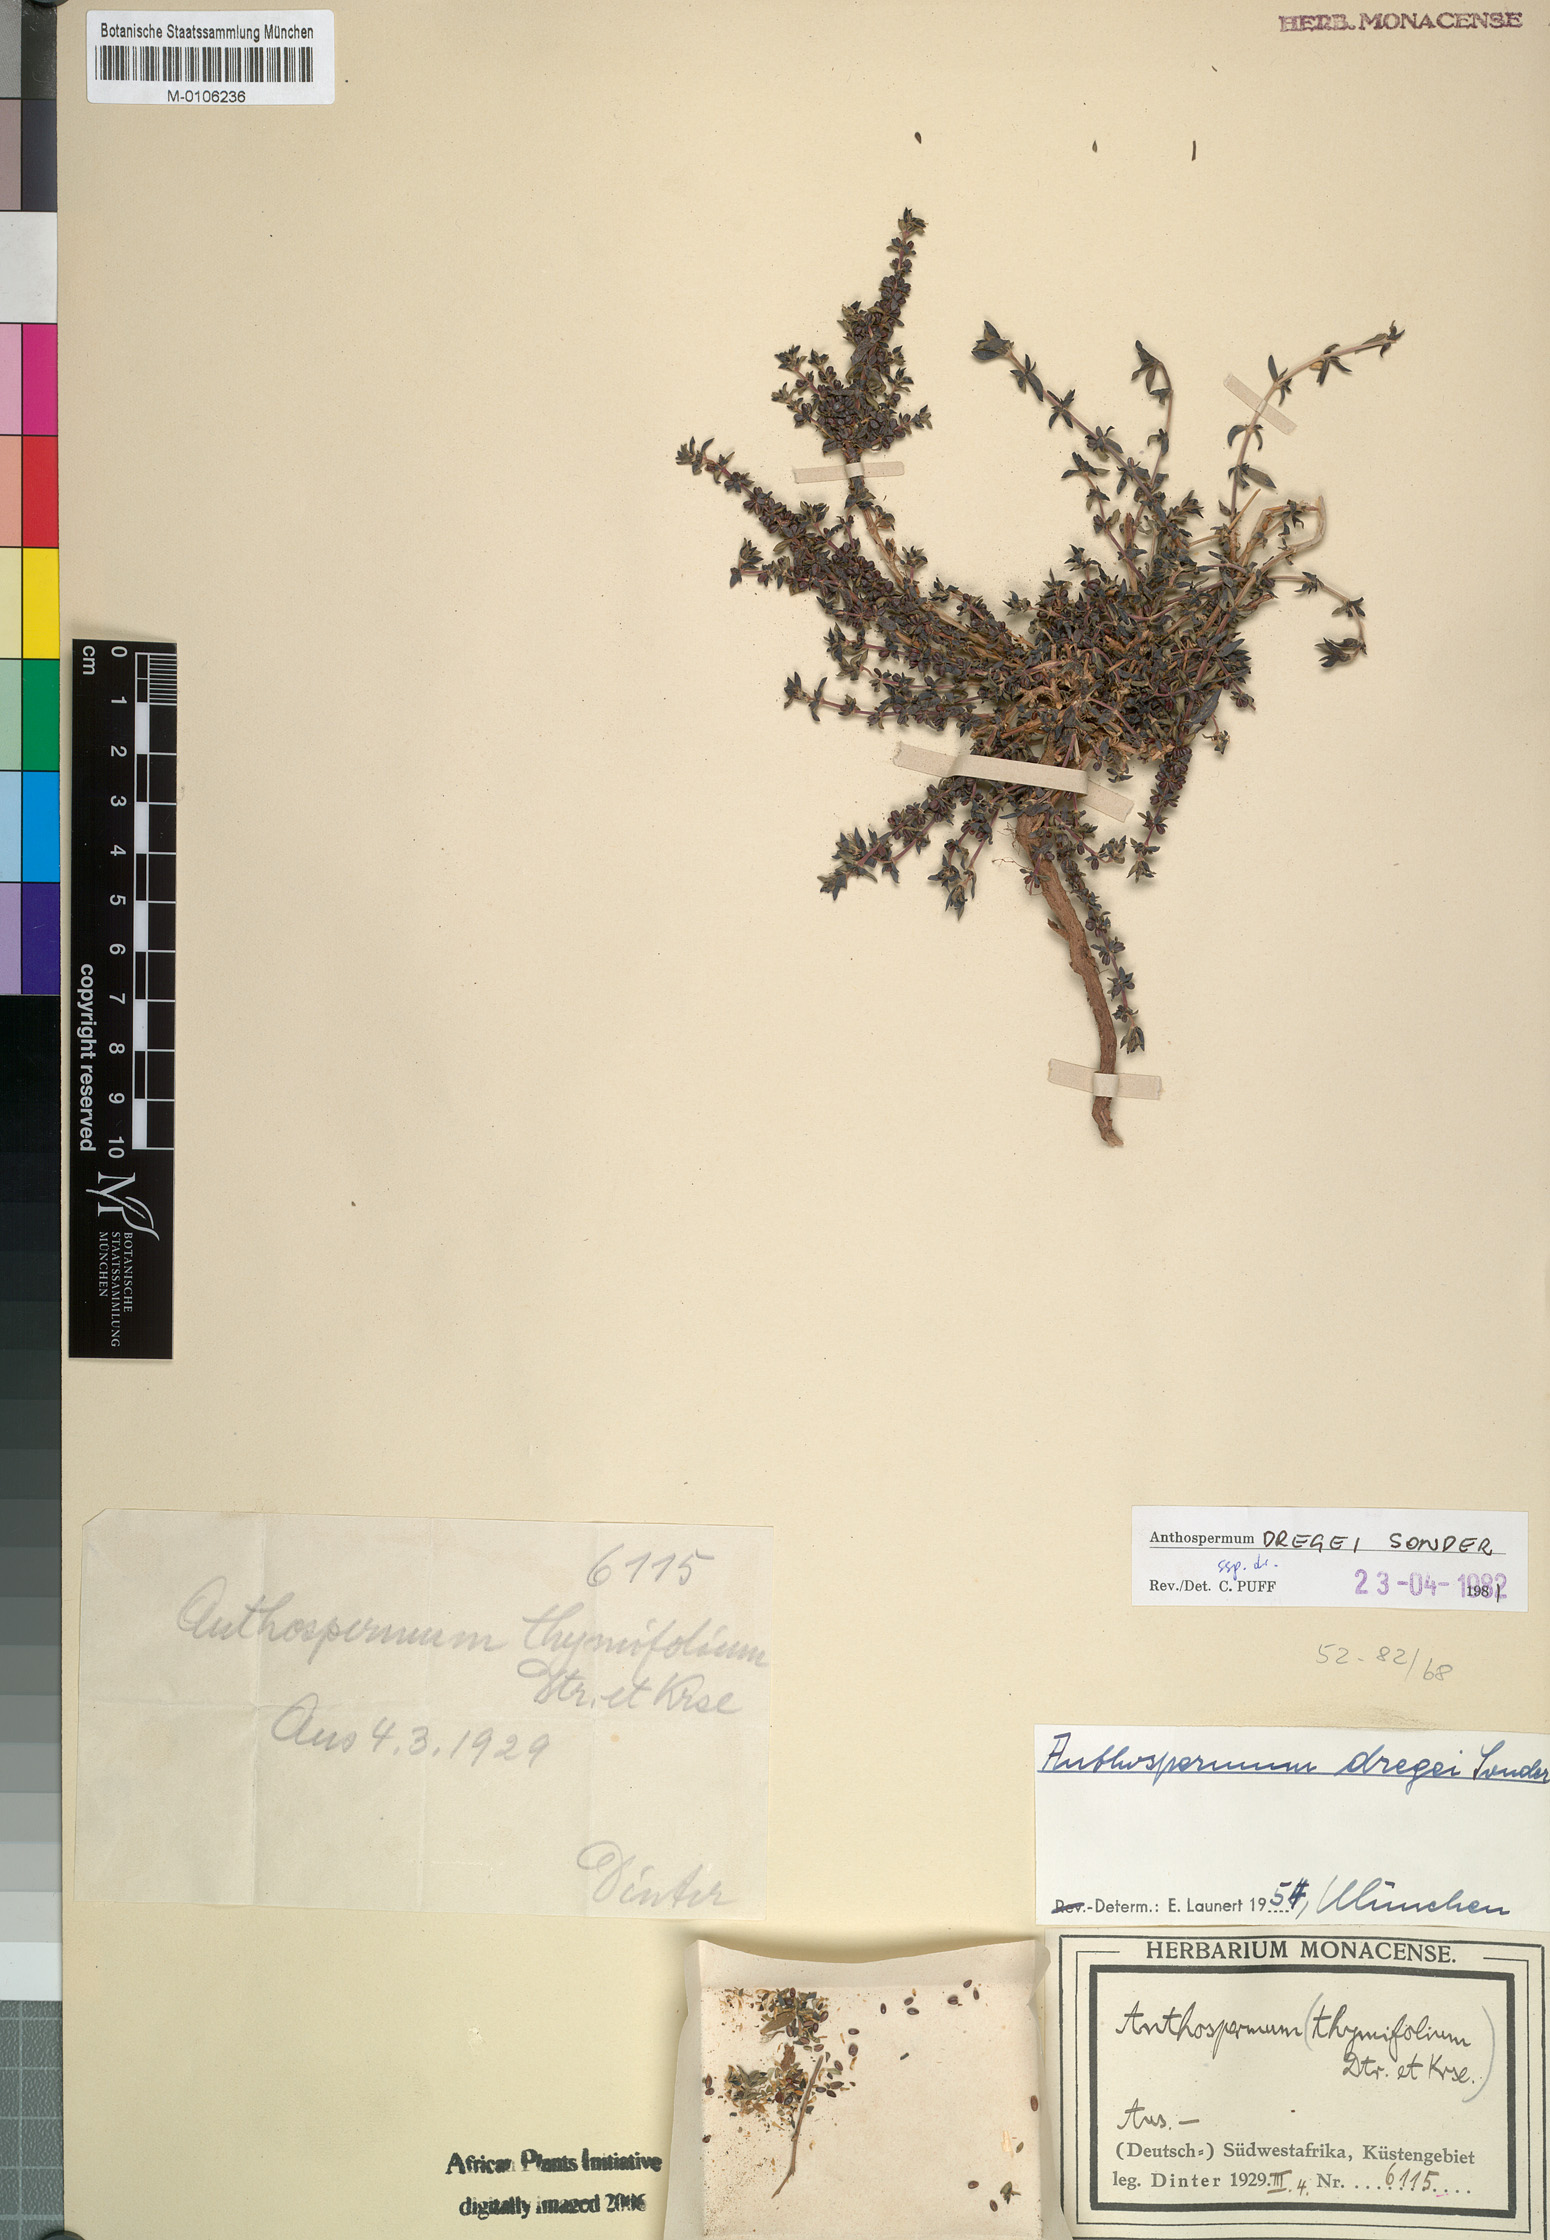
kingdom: Plantae
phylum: Tracheophyta
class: Magnoliopsida
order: Gentianales
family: Rubiaceae
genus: Anthospermum
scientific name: Anthospermum dregei
